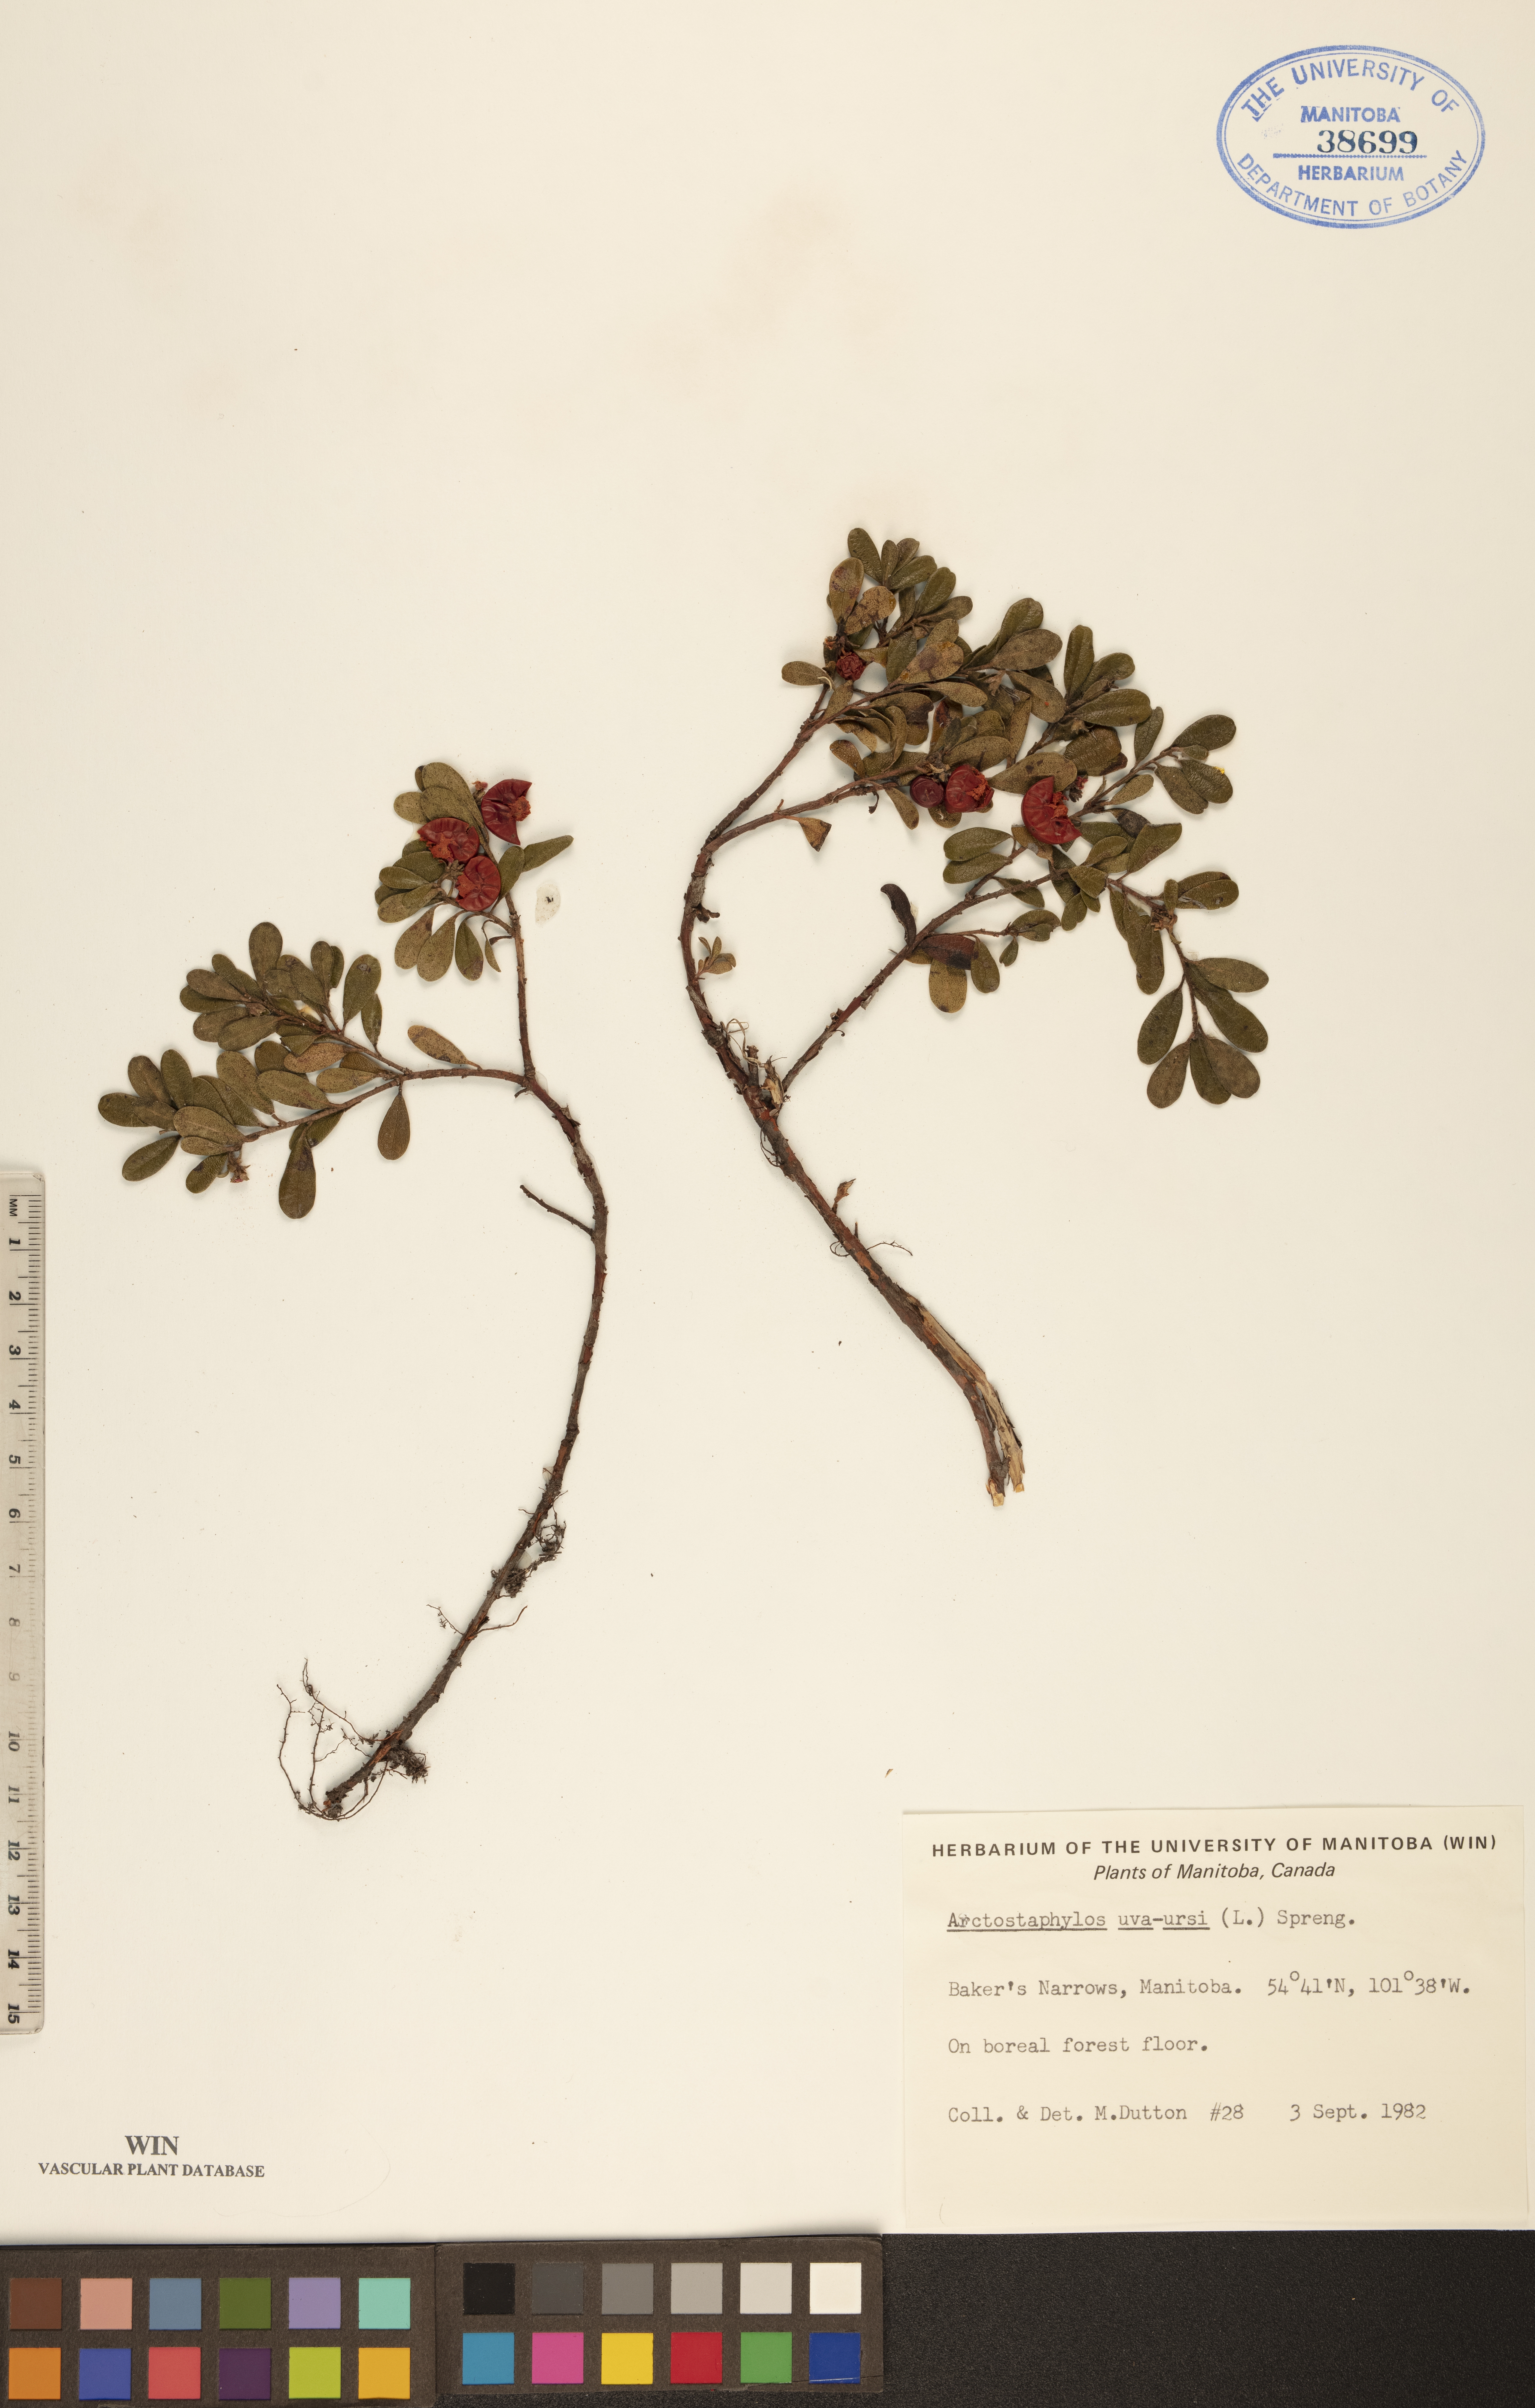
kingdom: Plantae
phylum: Tracheophyta
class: Magnoliopsida
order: Ericales
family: Ericaceae
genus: Arctostaphylos
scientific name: Arctostaphylos uva-ursi
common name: Bearberry
